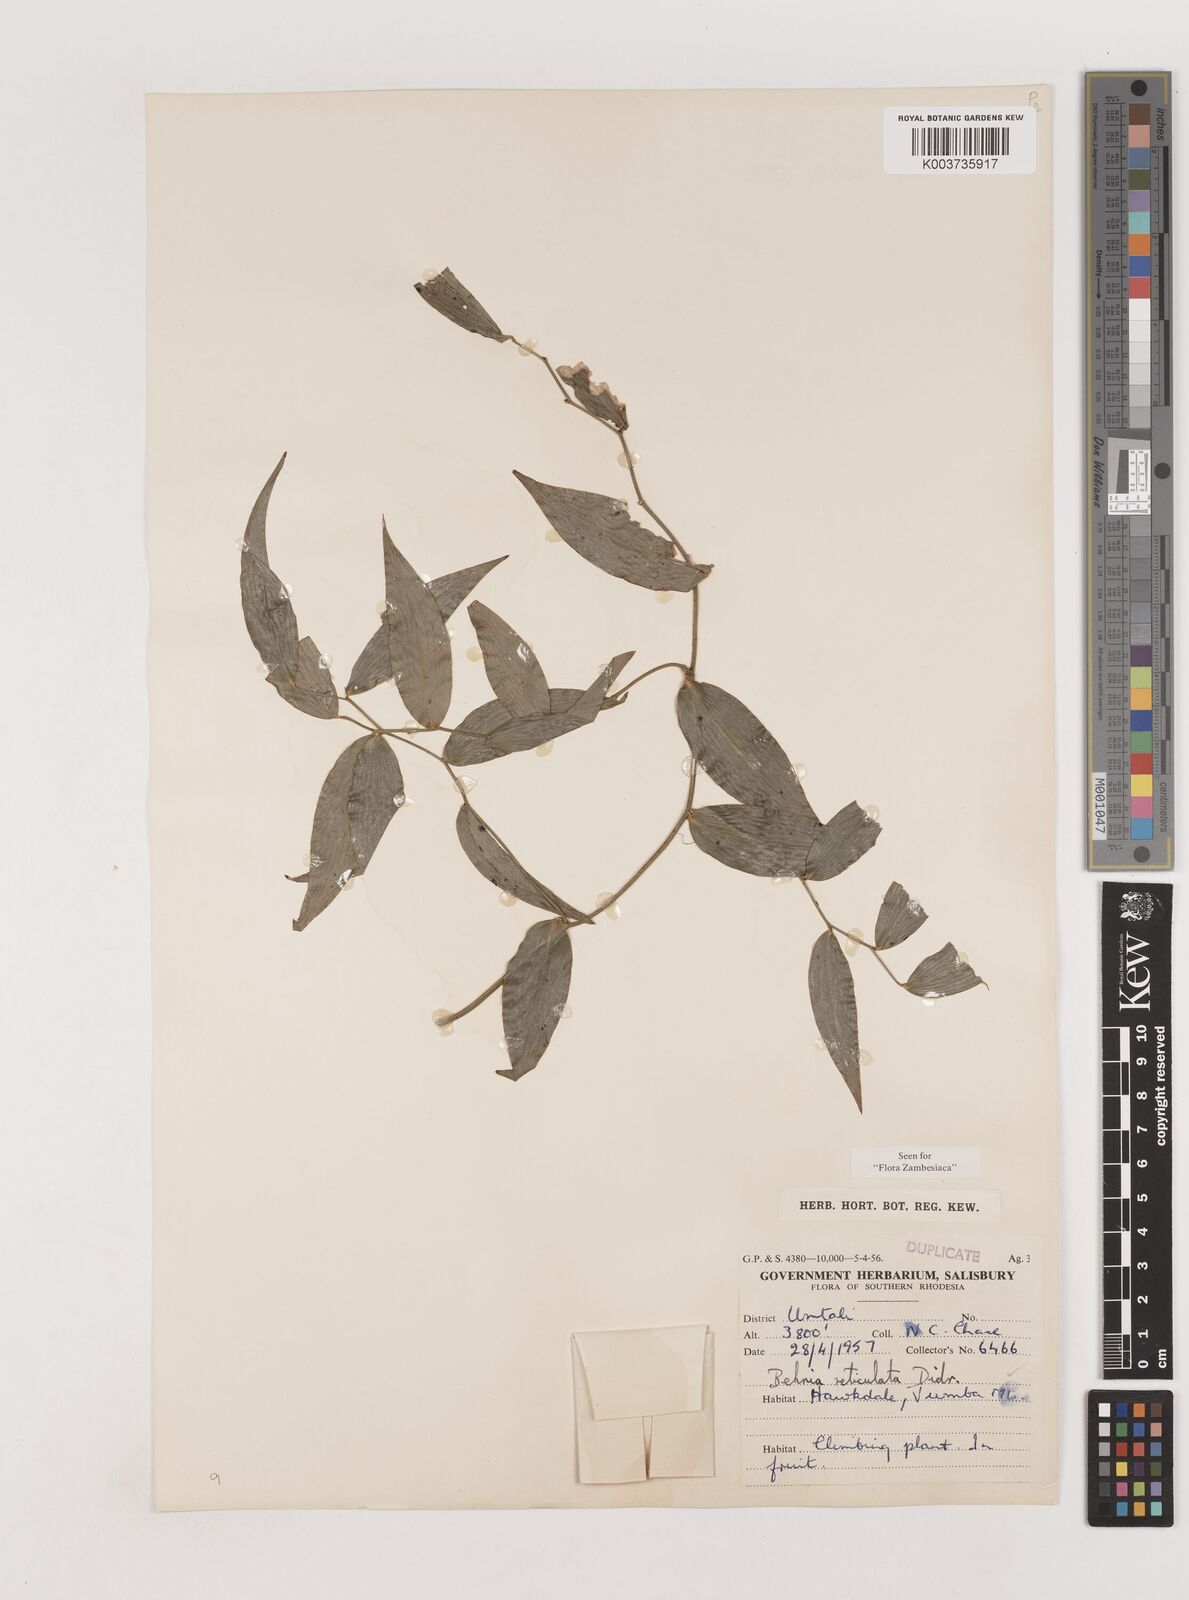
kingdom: Plantae
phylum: Tracheophyta
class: Liliopsida
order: Asparagales
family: Asparagaceae
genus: Behnia
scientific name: Behnia reticulata
